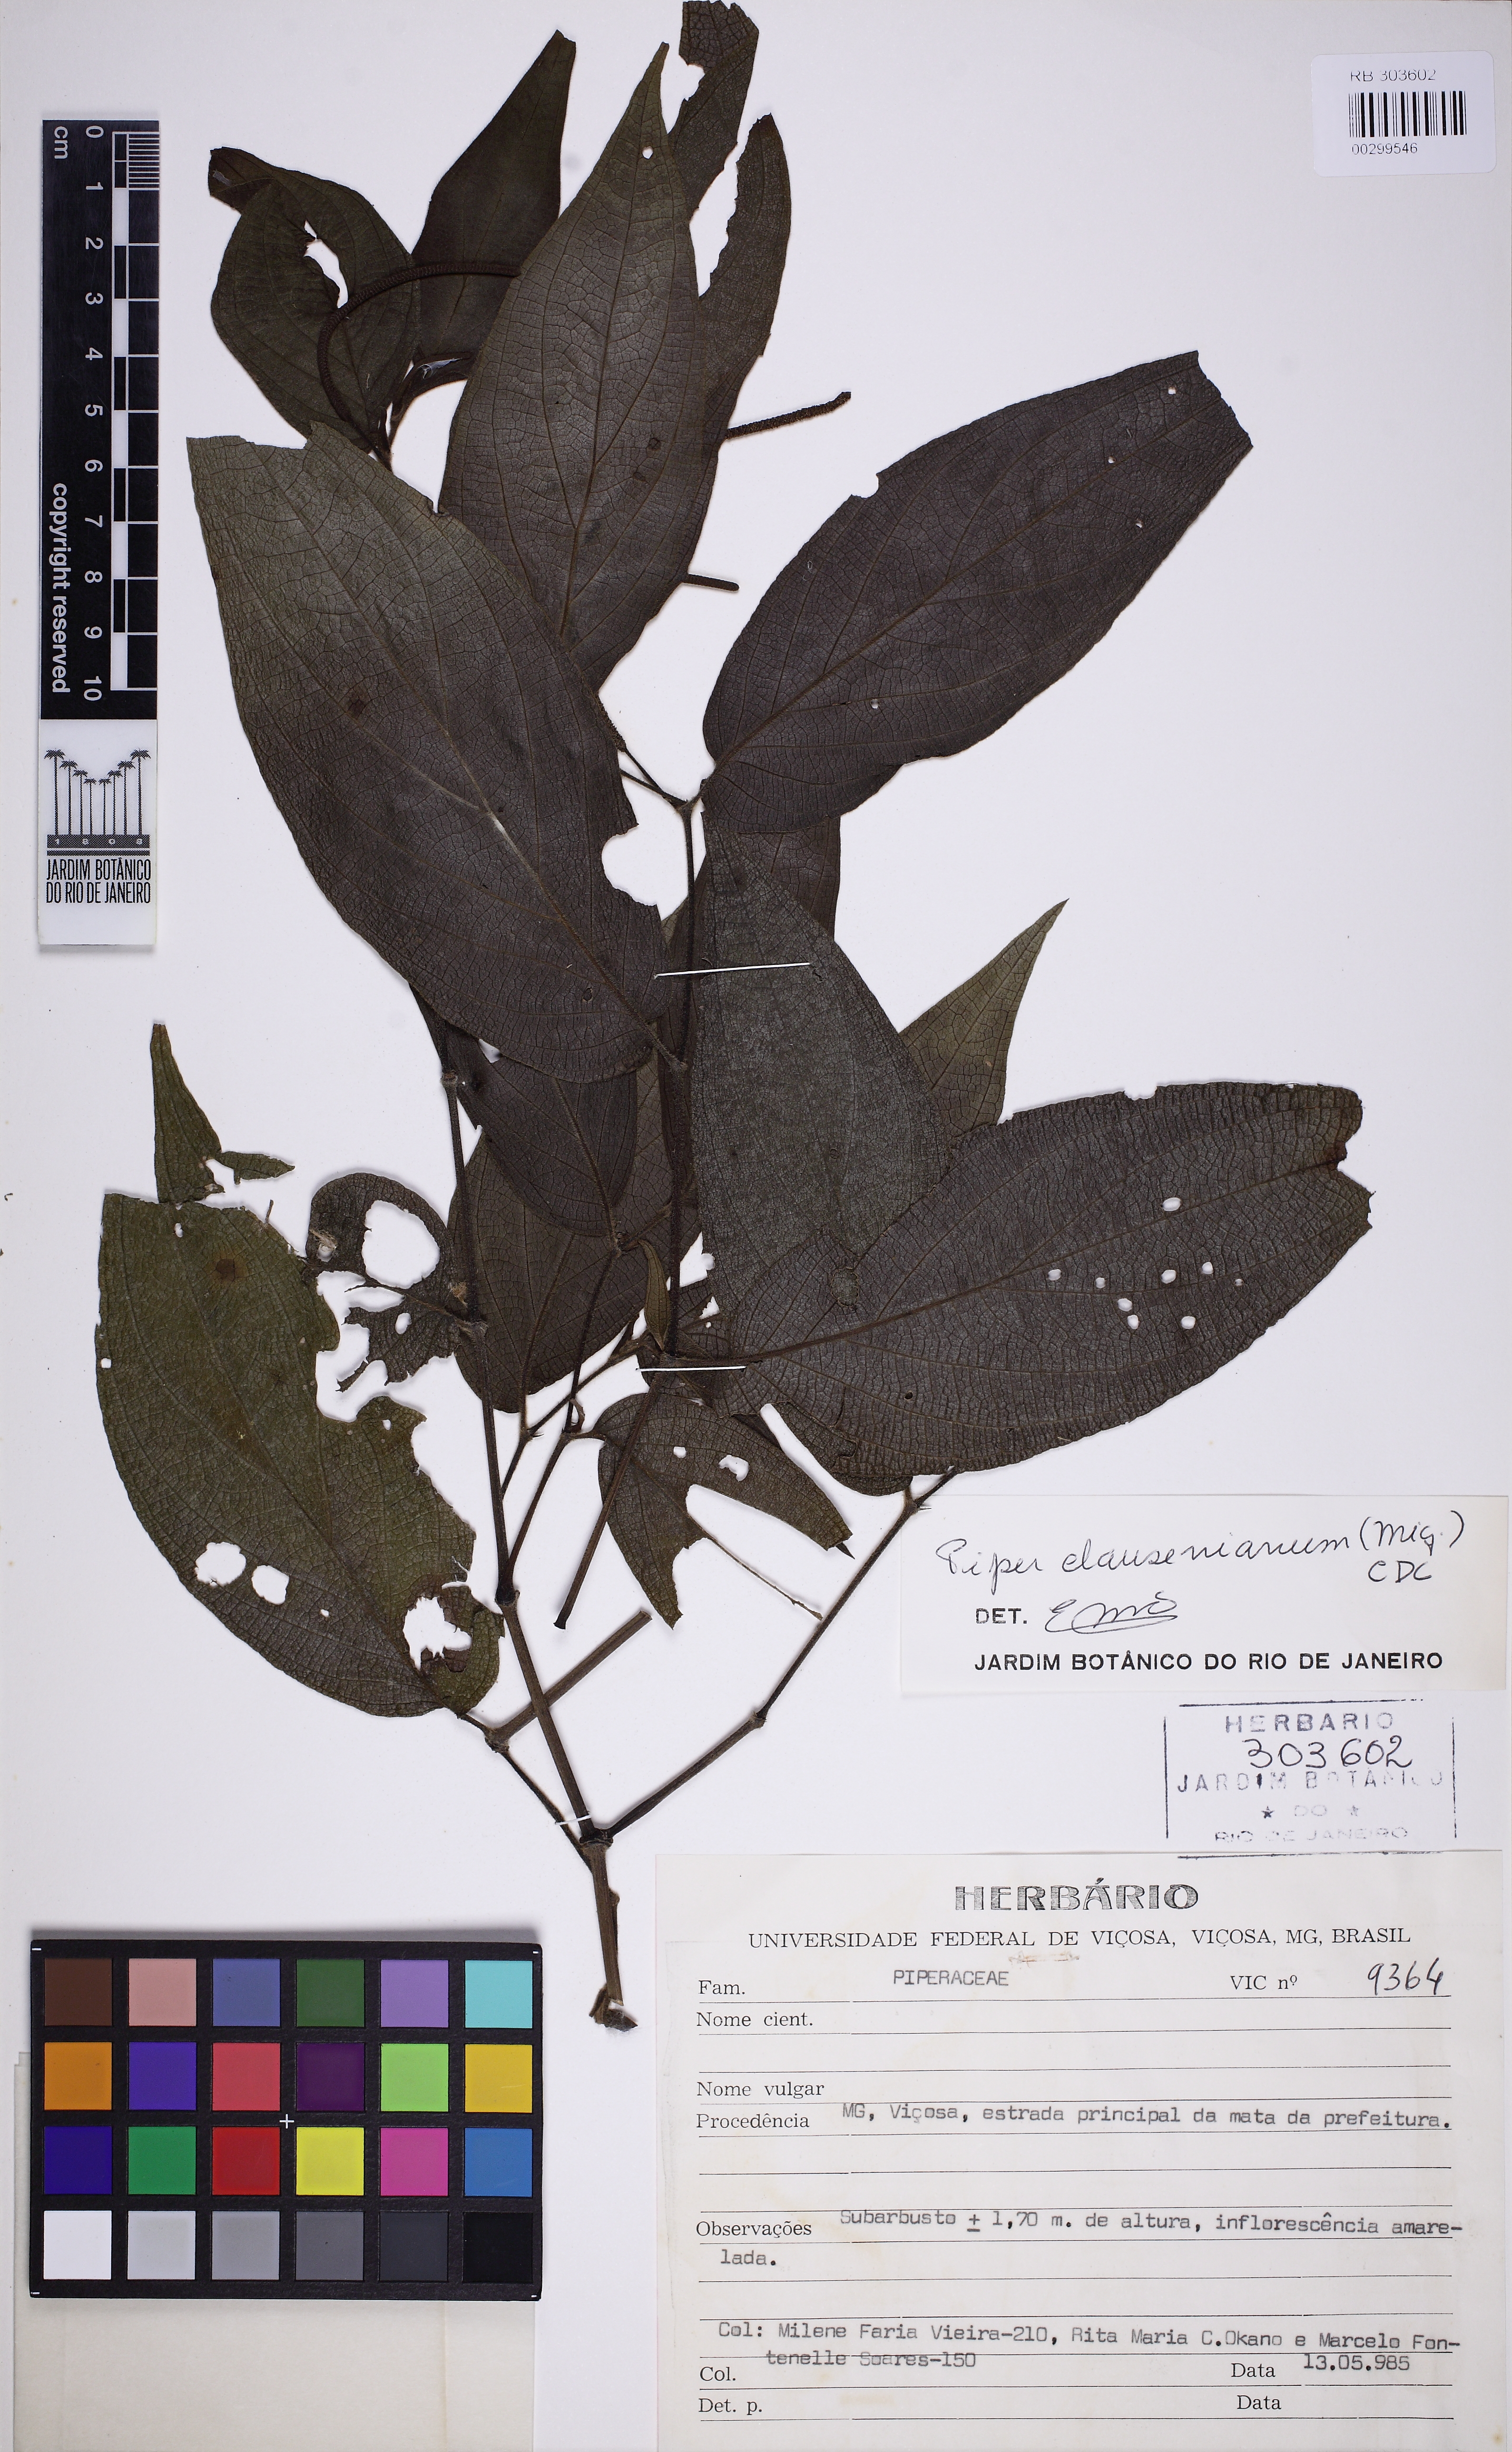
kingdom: Plantae
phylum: Tracheophyta
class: Magnoliopsida
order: Piperales
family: Piperaceae
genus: Piper
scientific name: Piper claussenianum
